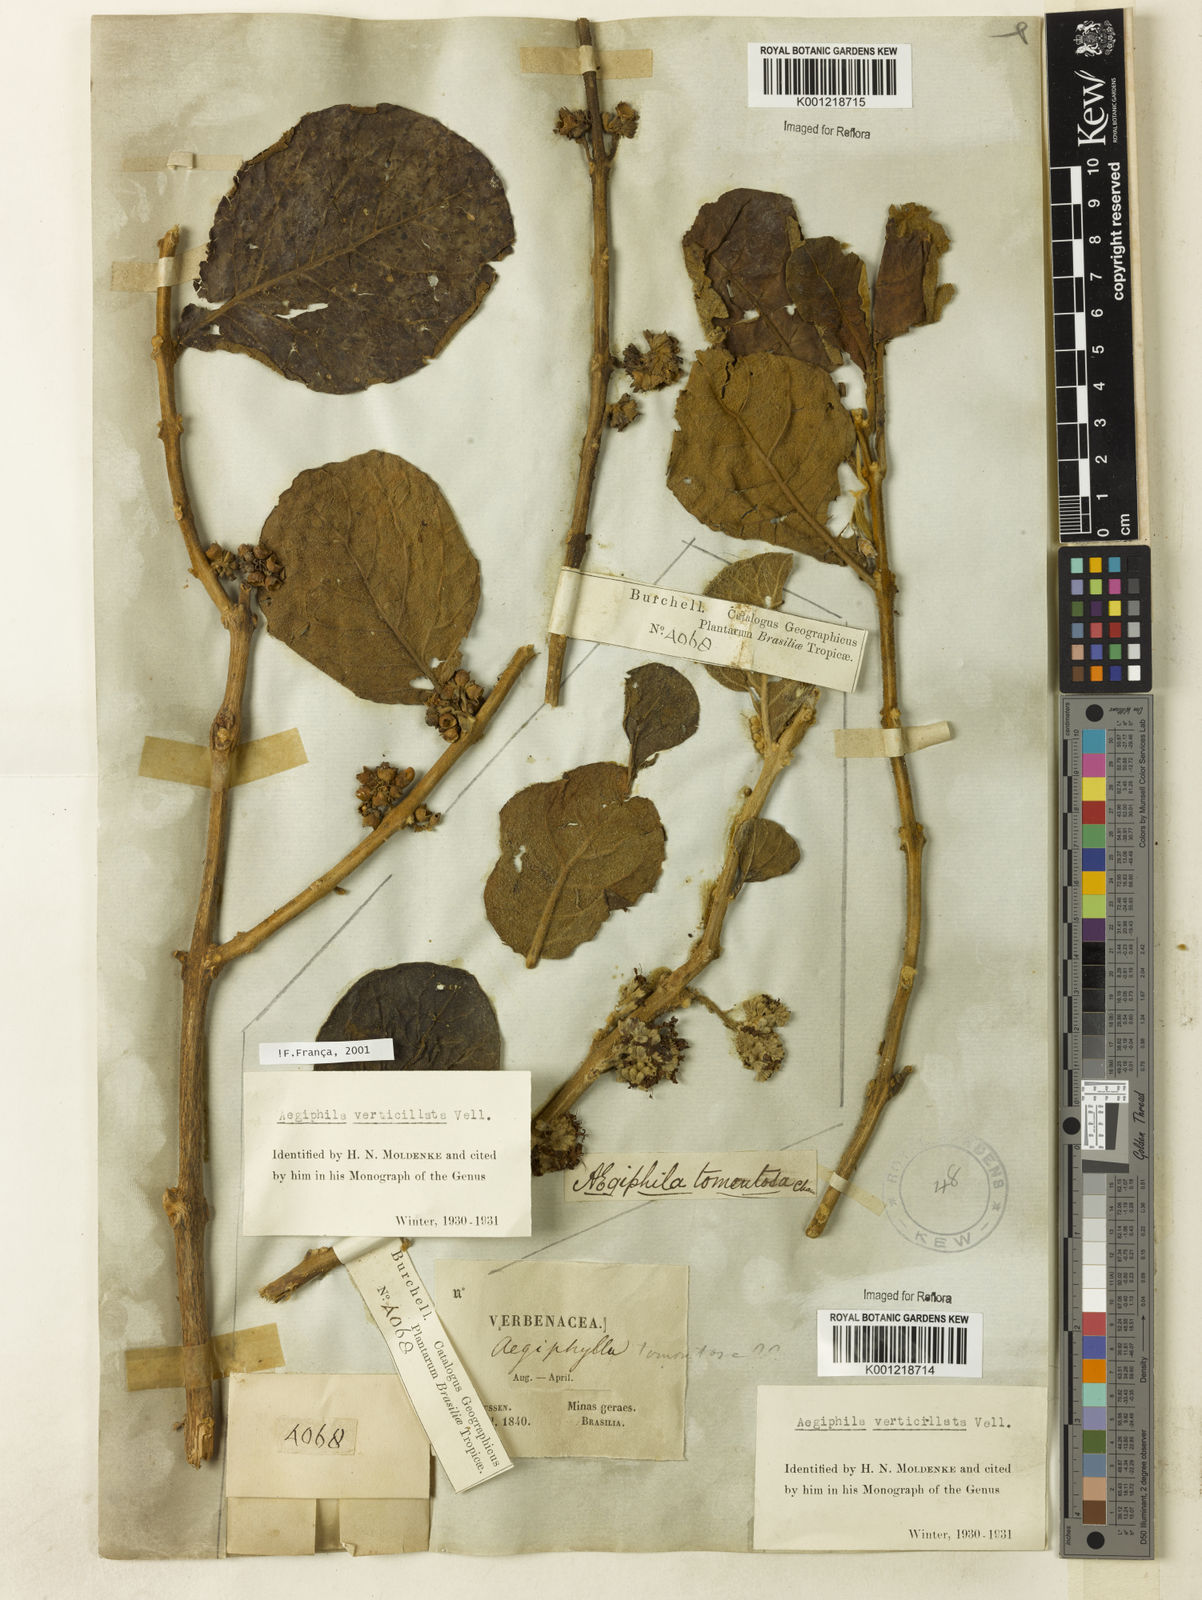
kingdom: Plantae
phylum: Tracheophyta
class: Magnoliopsida
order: Lamiales
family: Lamiaceae
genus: Aegiphila
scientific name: Aegiphila verticillata
